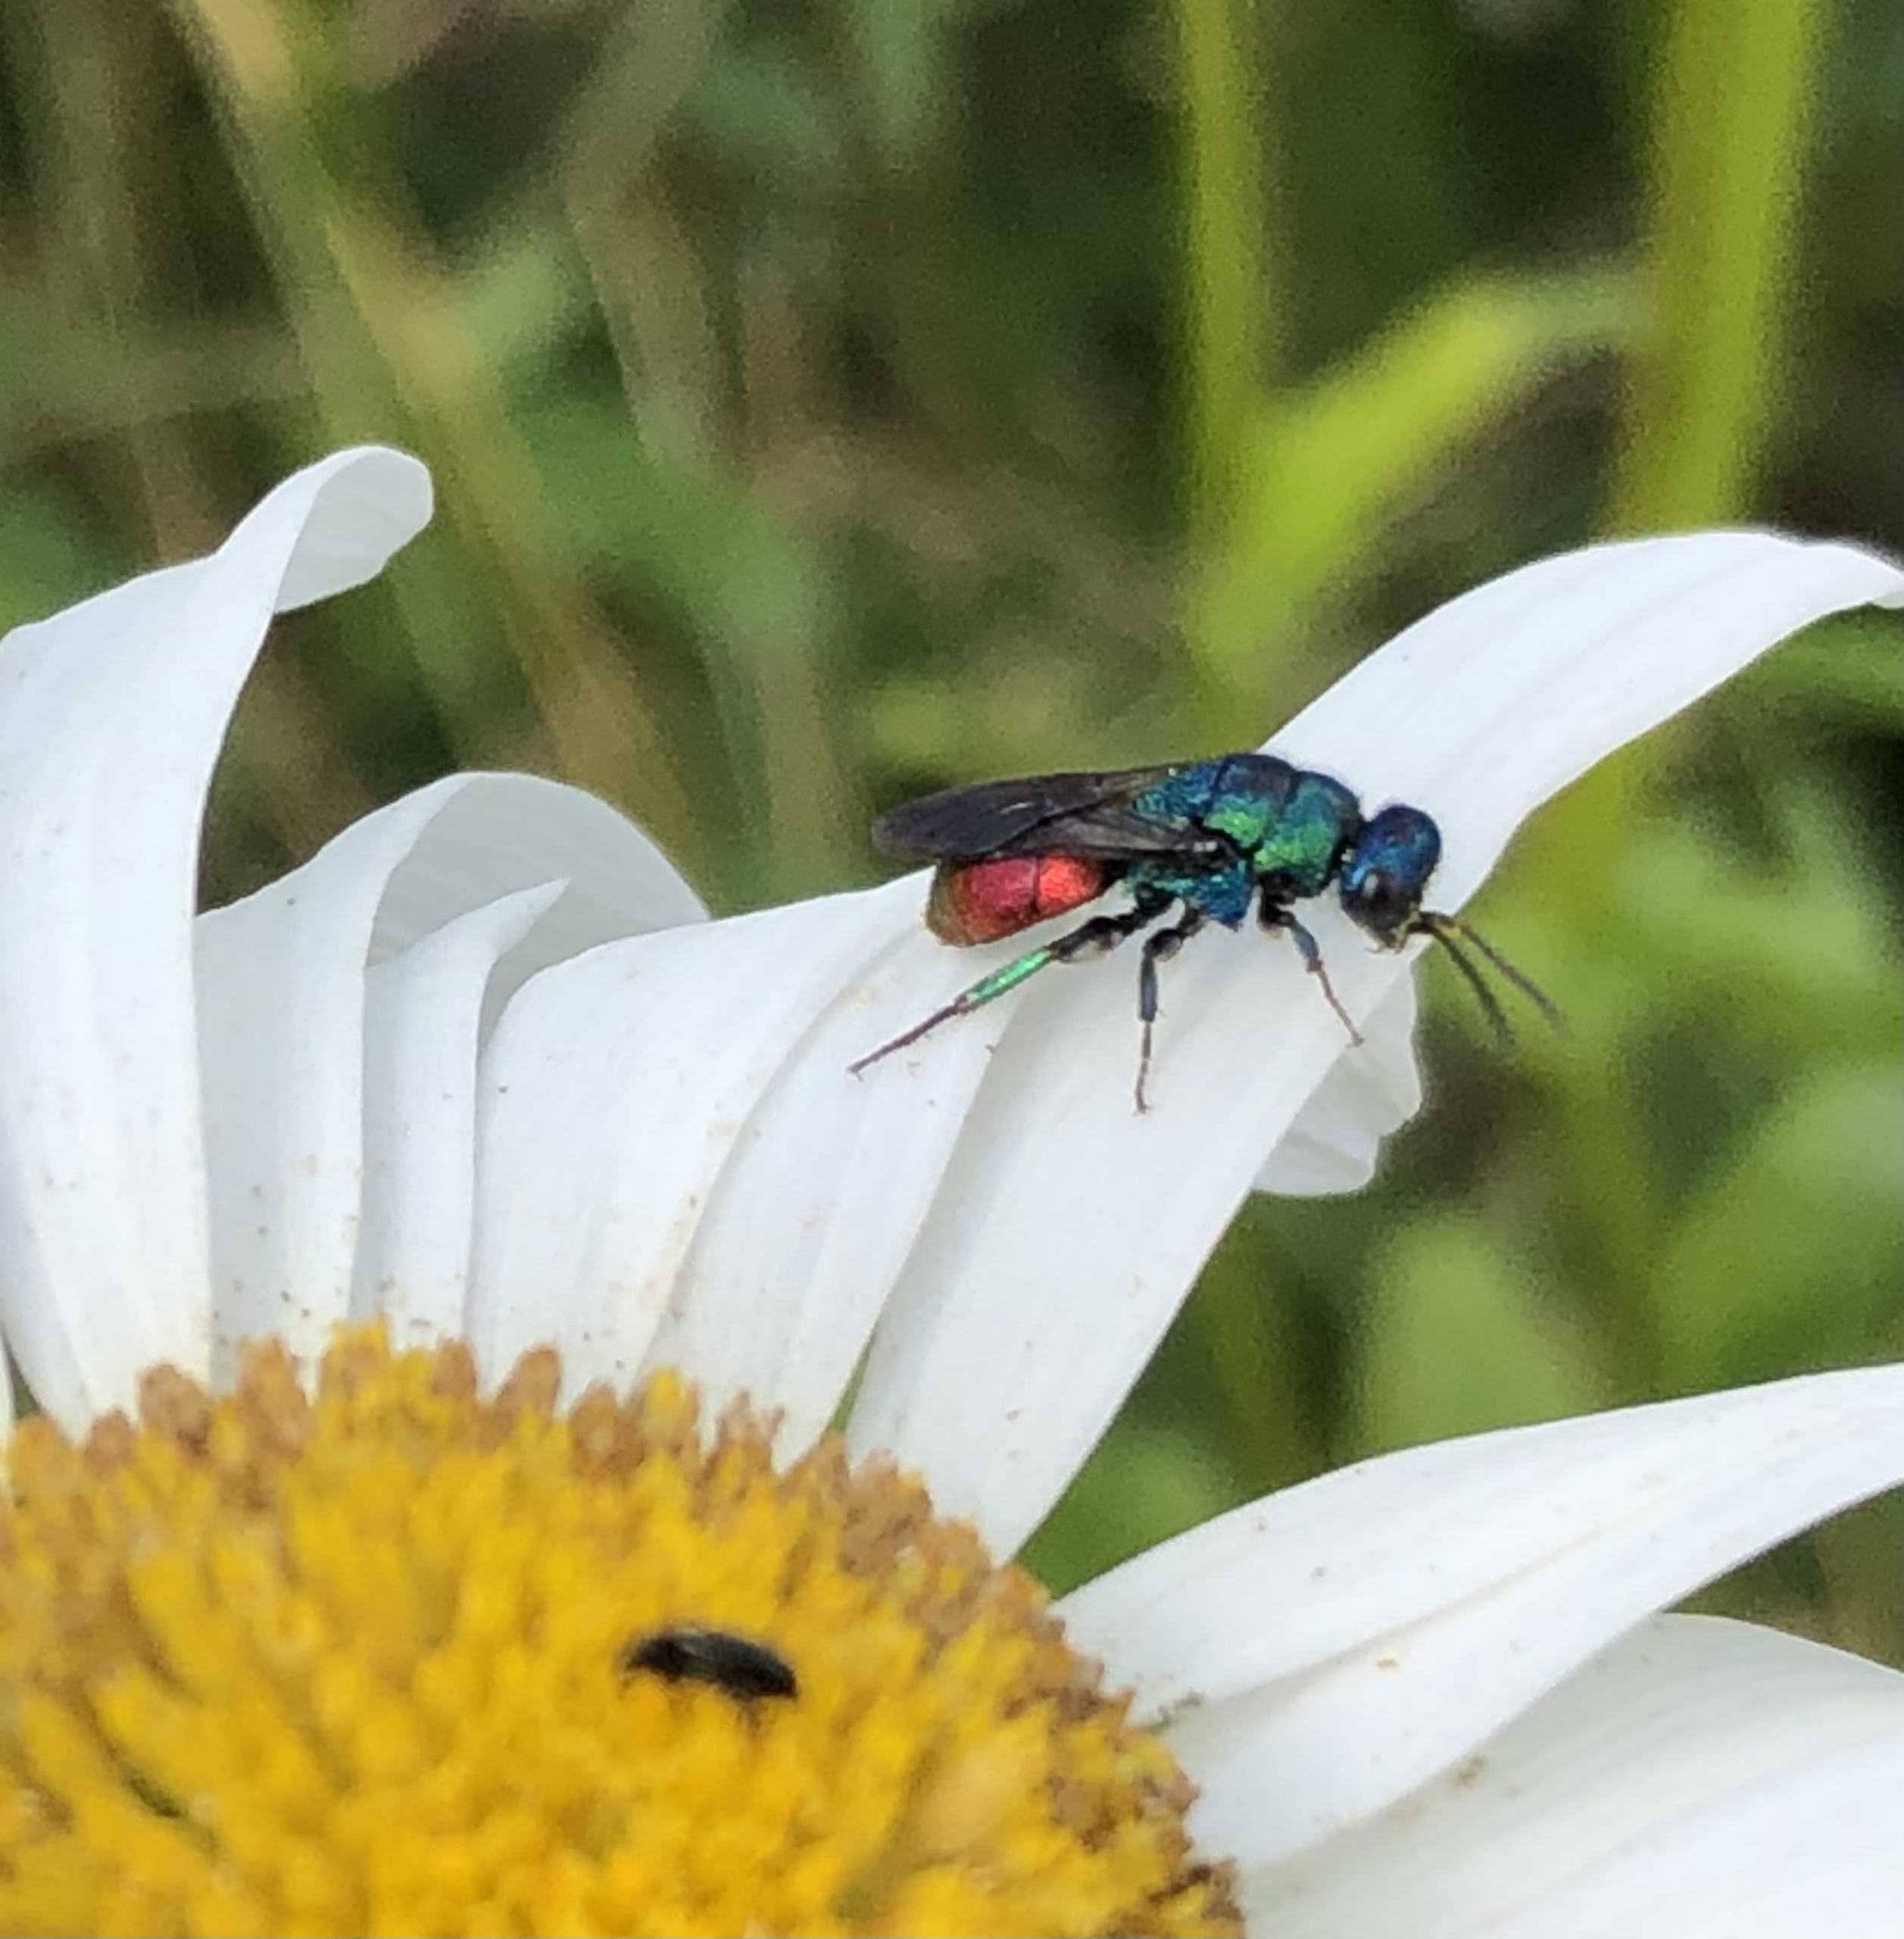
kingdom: Animalia
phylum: Arthropoda
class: Insecta
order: Hymenoptera
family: Chrysididae
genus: Hedychrum
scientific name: Hedychrum
